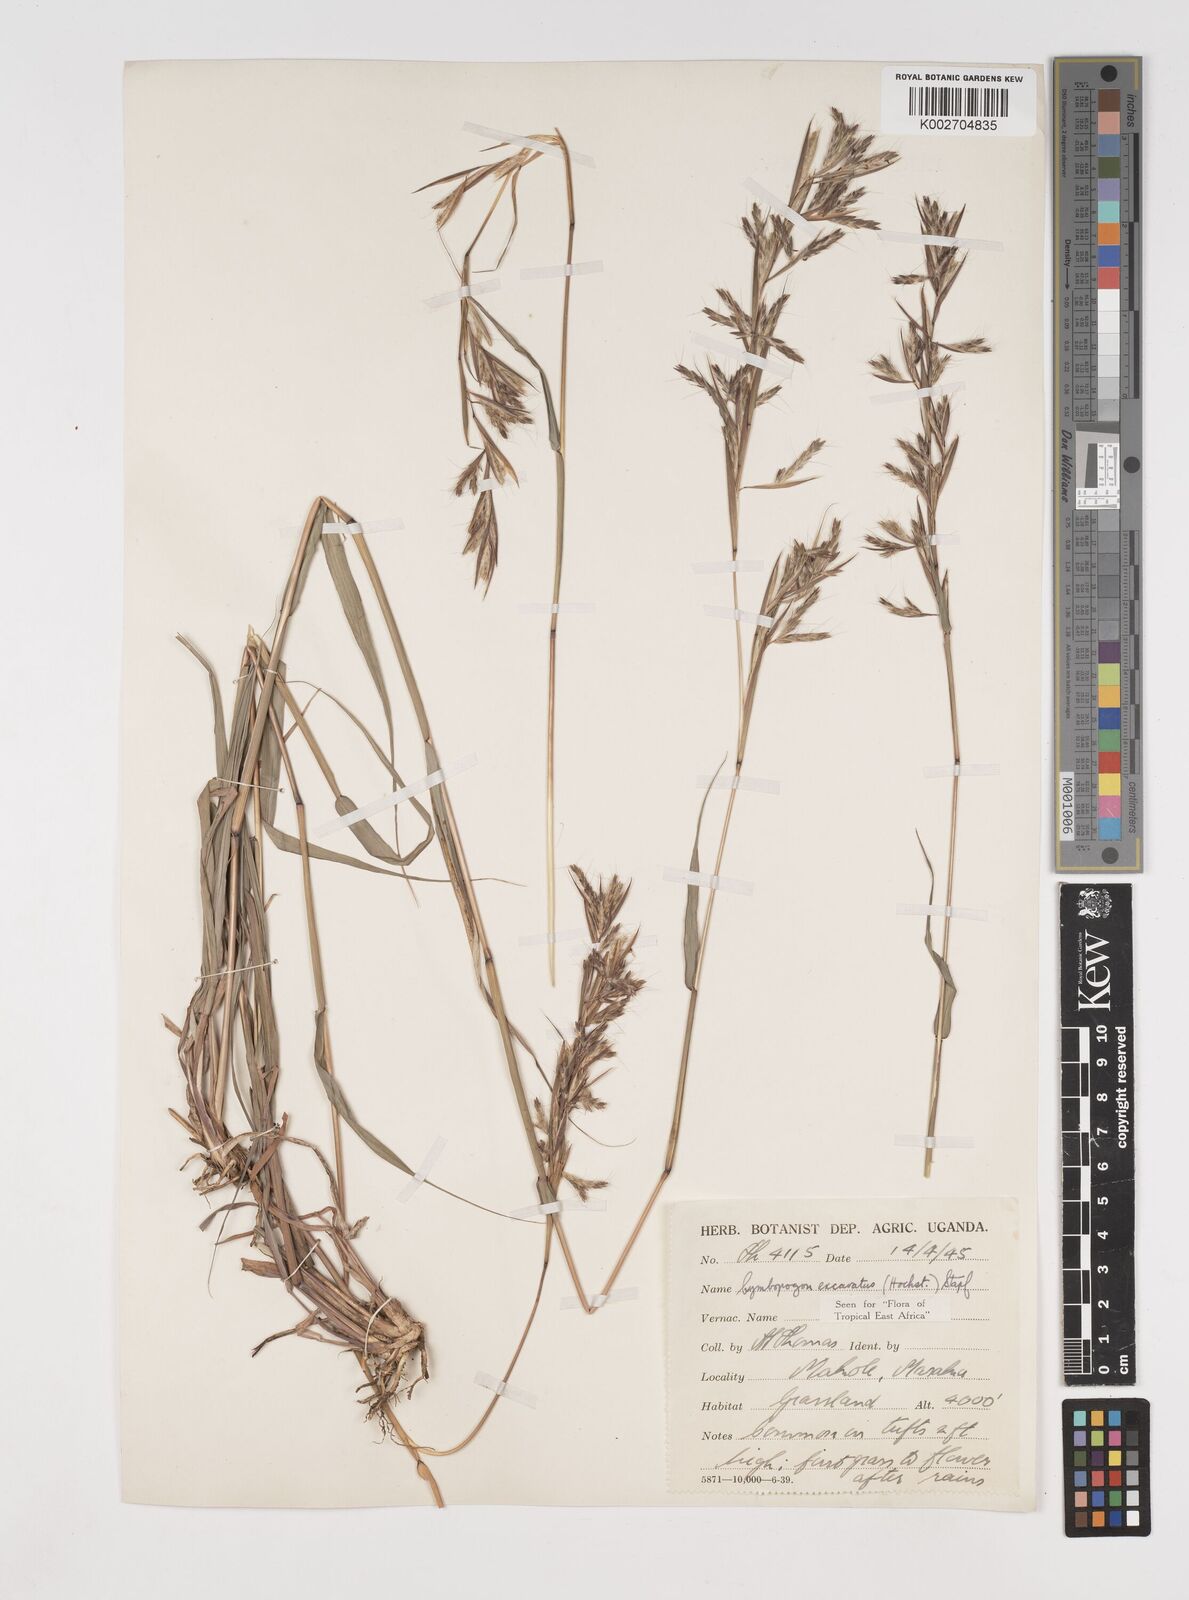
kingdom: Plantae
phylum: Tracheophyta
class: Liliopsida
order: Poales
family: Poaceae
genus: Cymbopogon
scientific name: Cymbopogon caesius
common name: Kachi grass
